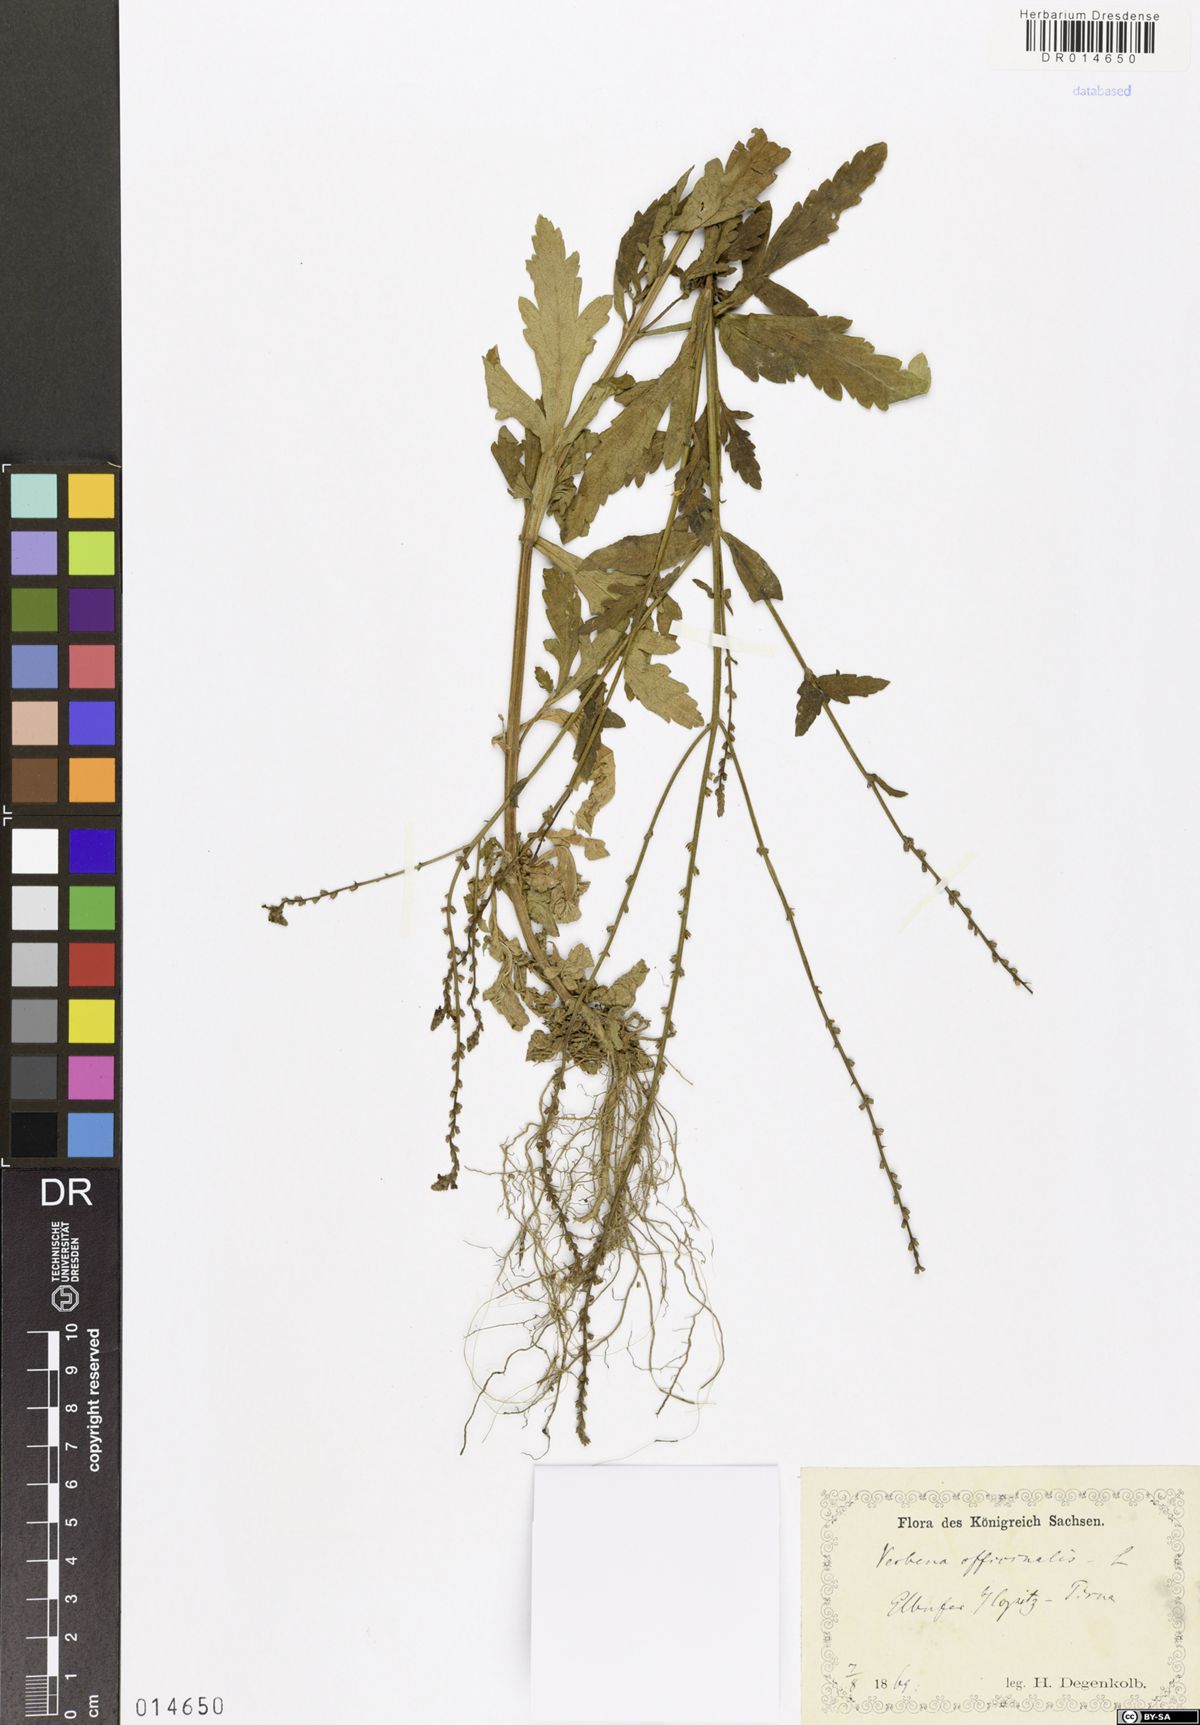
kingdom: Plantae
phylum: Tracheophyta
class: Magnoliopsida
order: Lamiales
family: Verbenaceae
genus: Verbena
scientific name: Verbena officinalis
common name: Vervain
